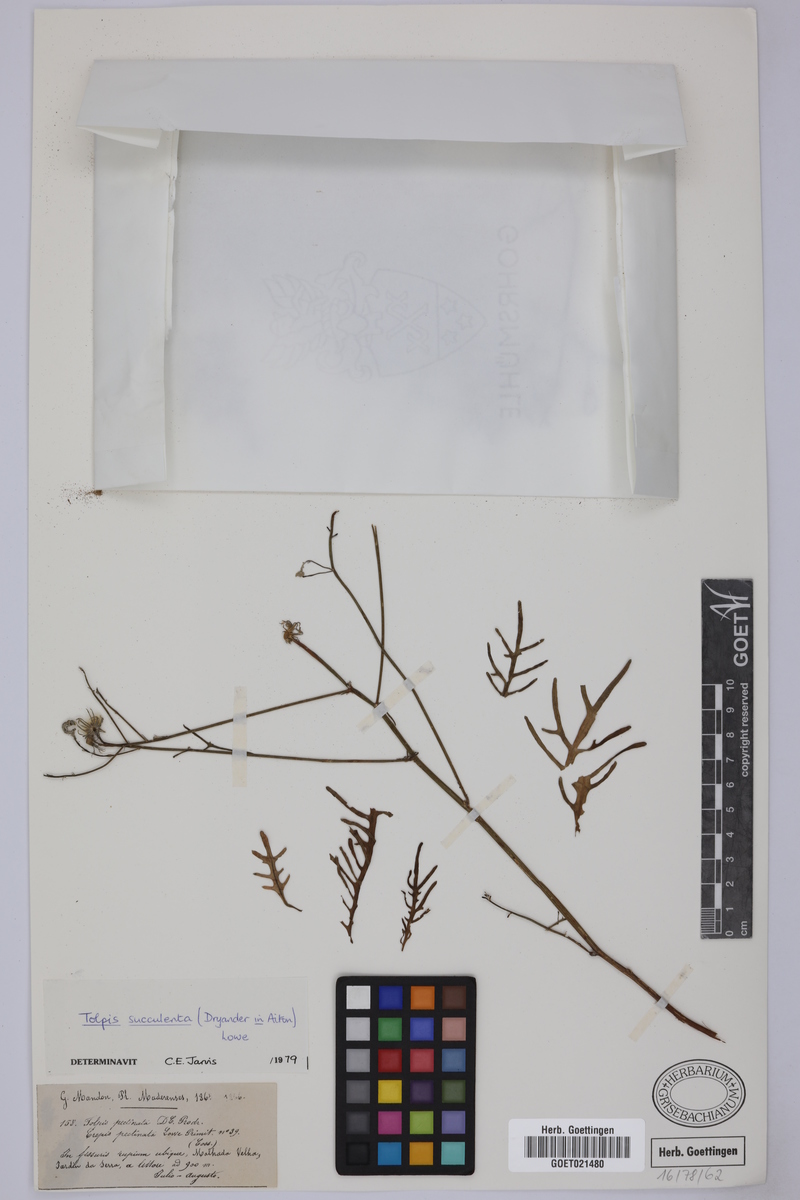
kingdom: Plantae
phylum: Tracheophyta
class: Magnoliopsida
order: Asterales
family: Asteraceae
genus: Tolpis
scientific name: Tolpis succulenta
